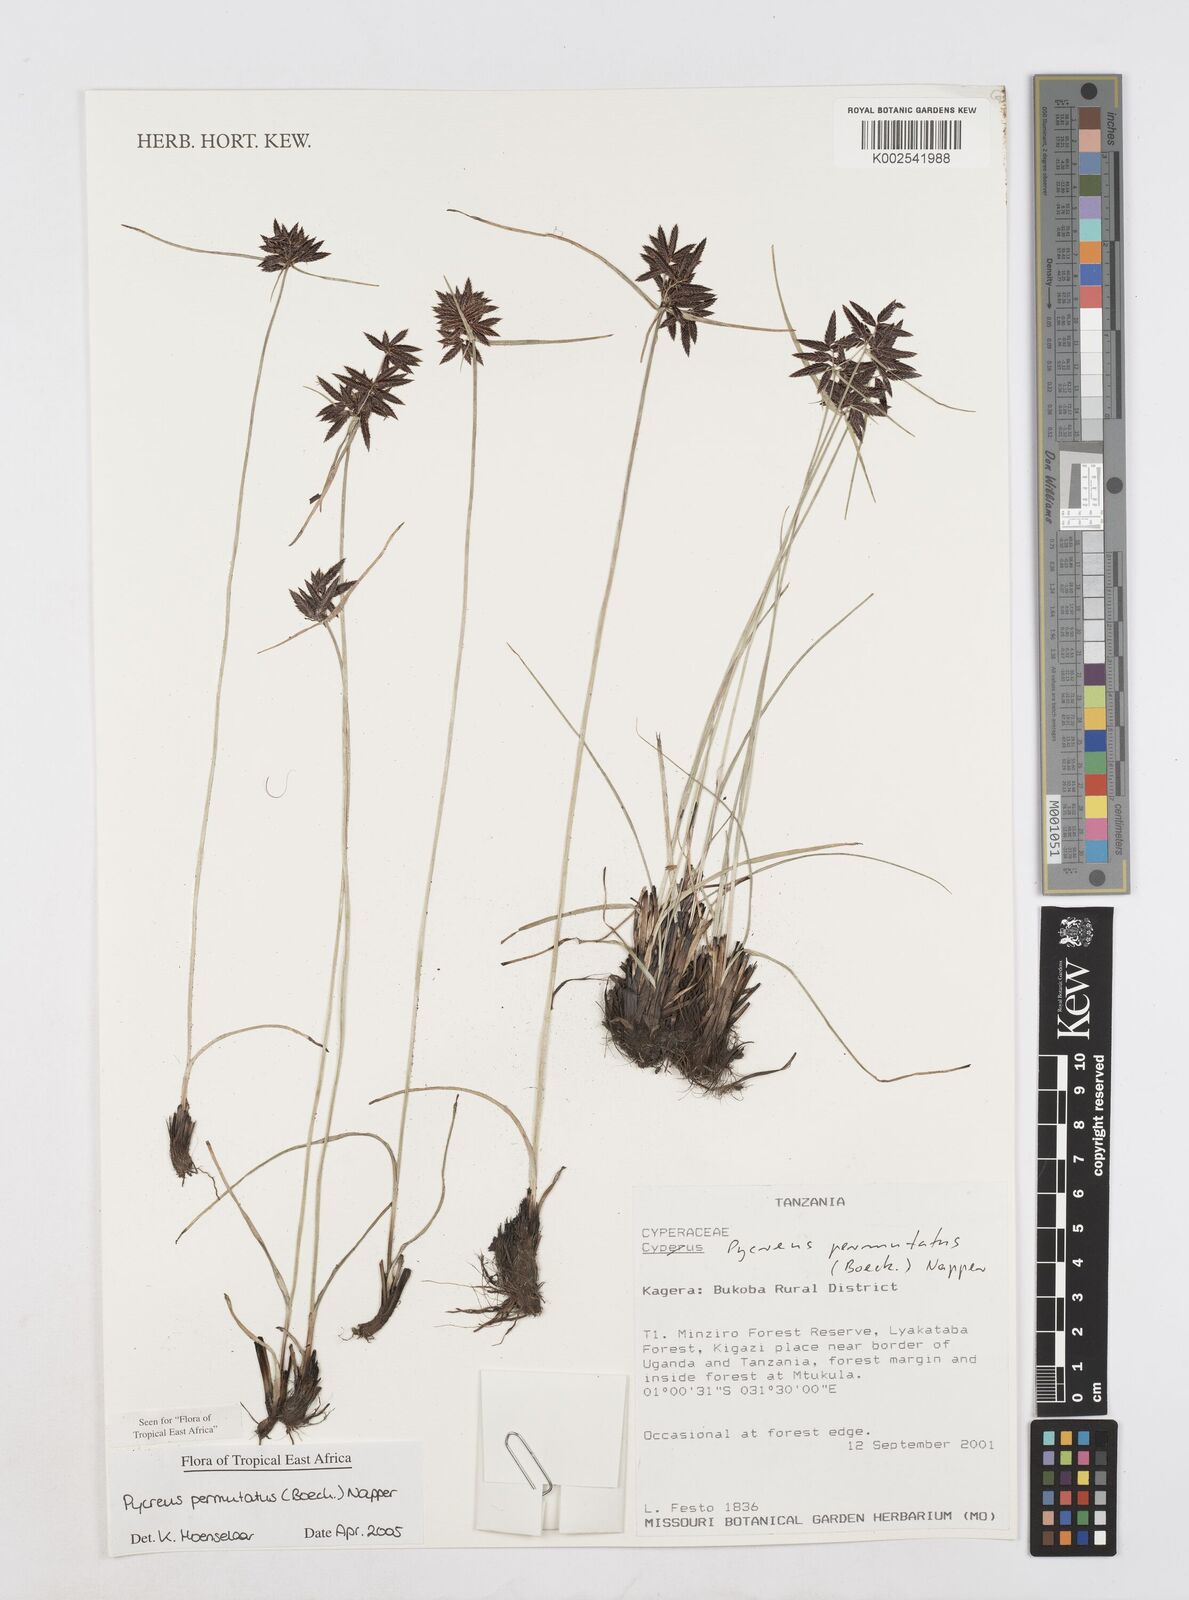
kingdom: Plantae
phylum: Tracheophyta
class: Liliopsida
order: Poales
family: Cyperaceae
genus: Cyperus
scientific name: Cyperus nigricans
